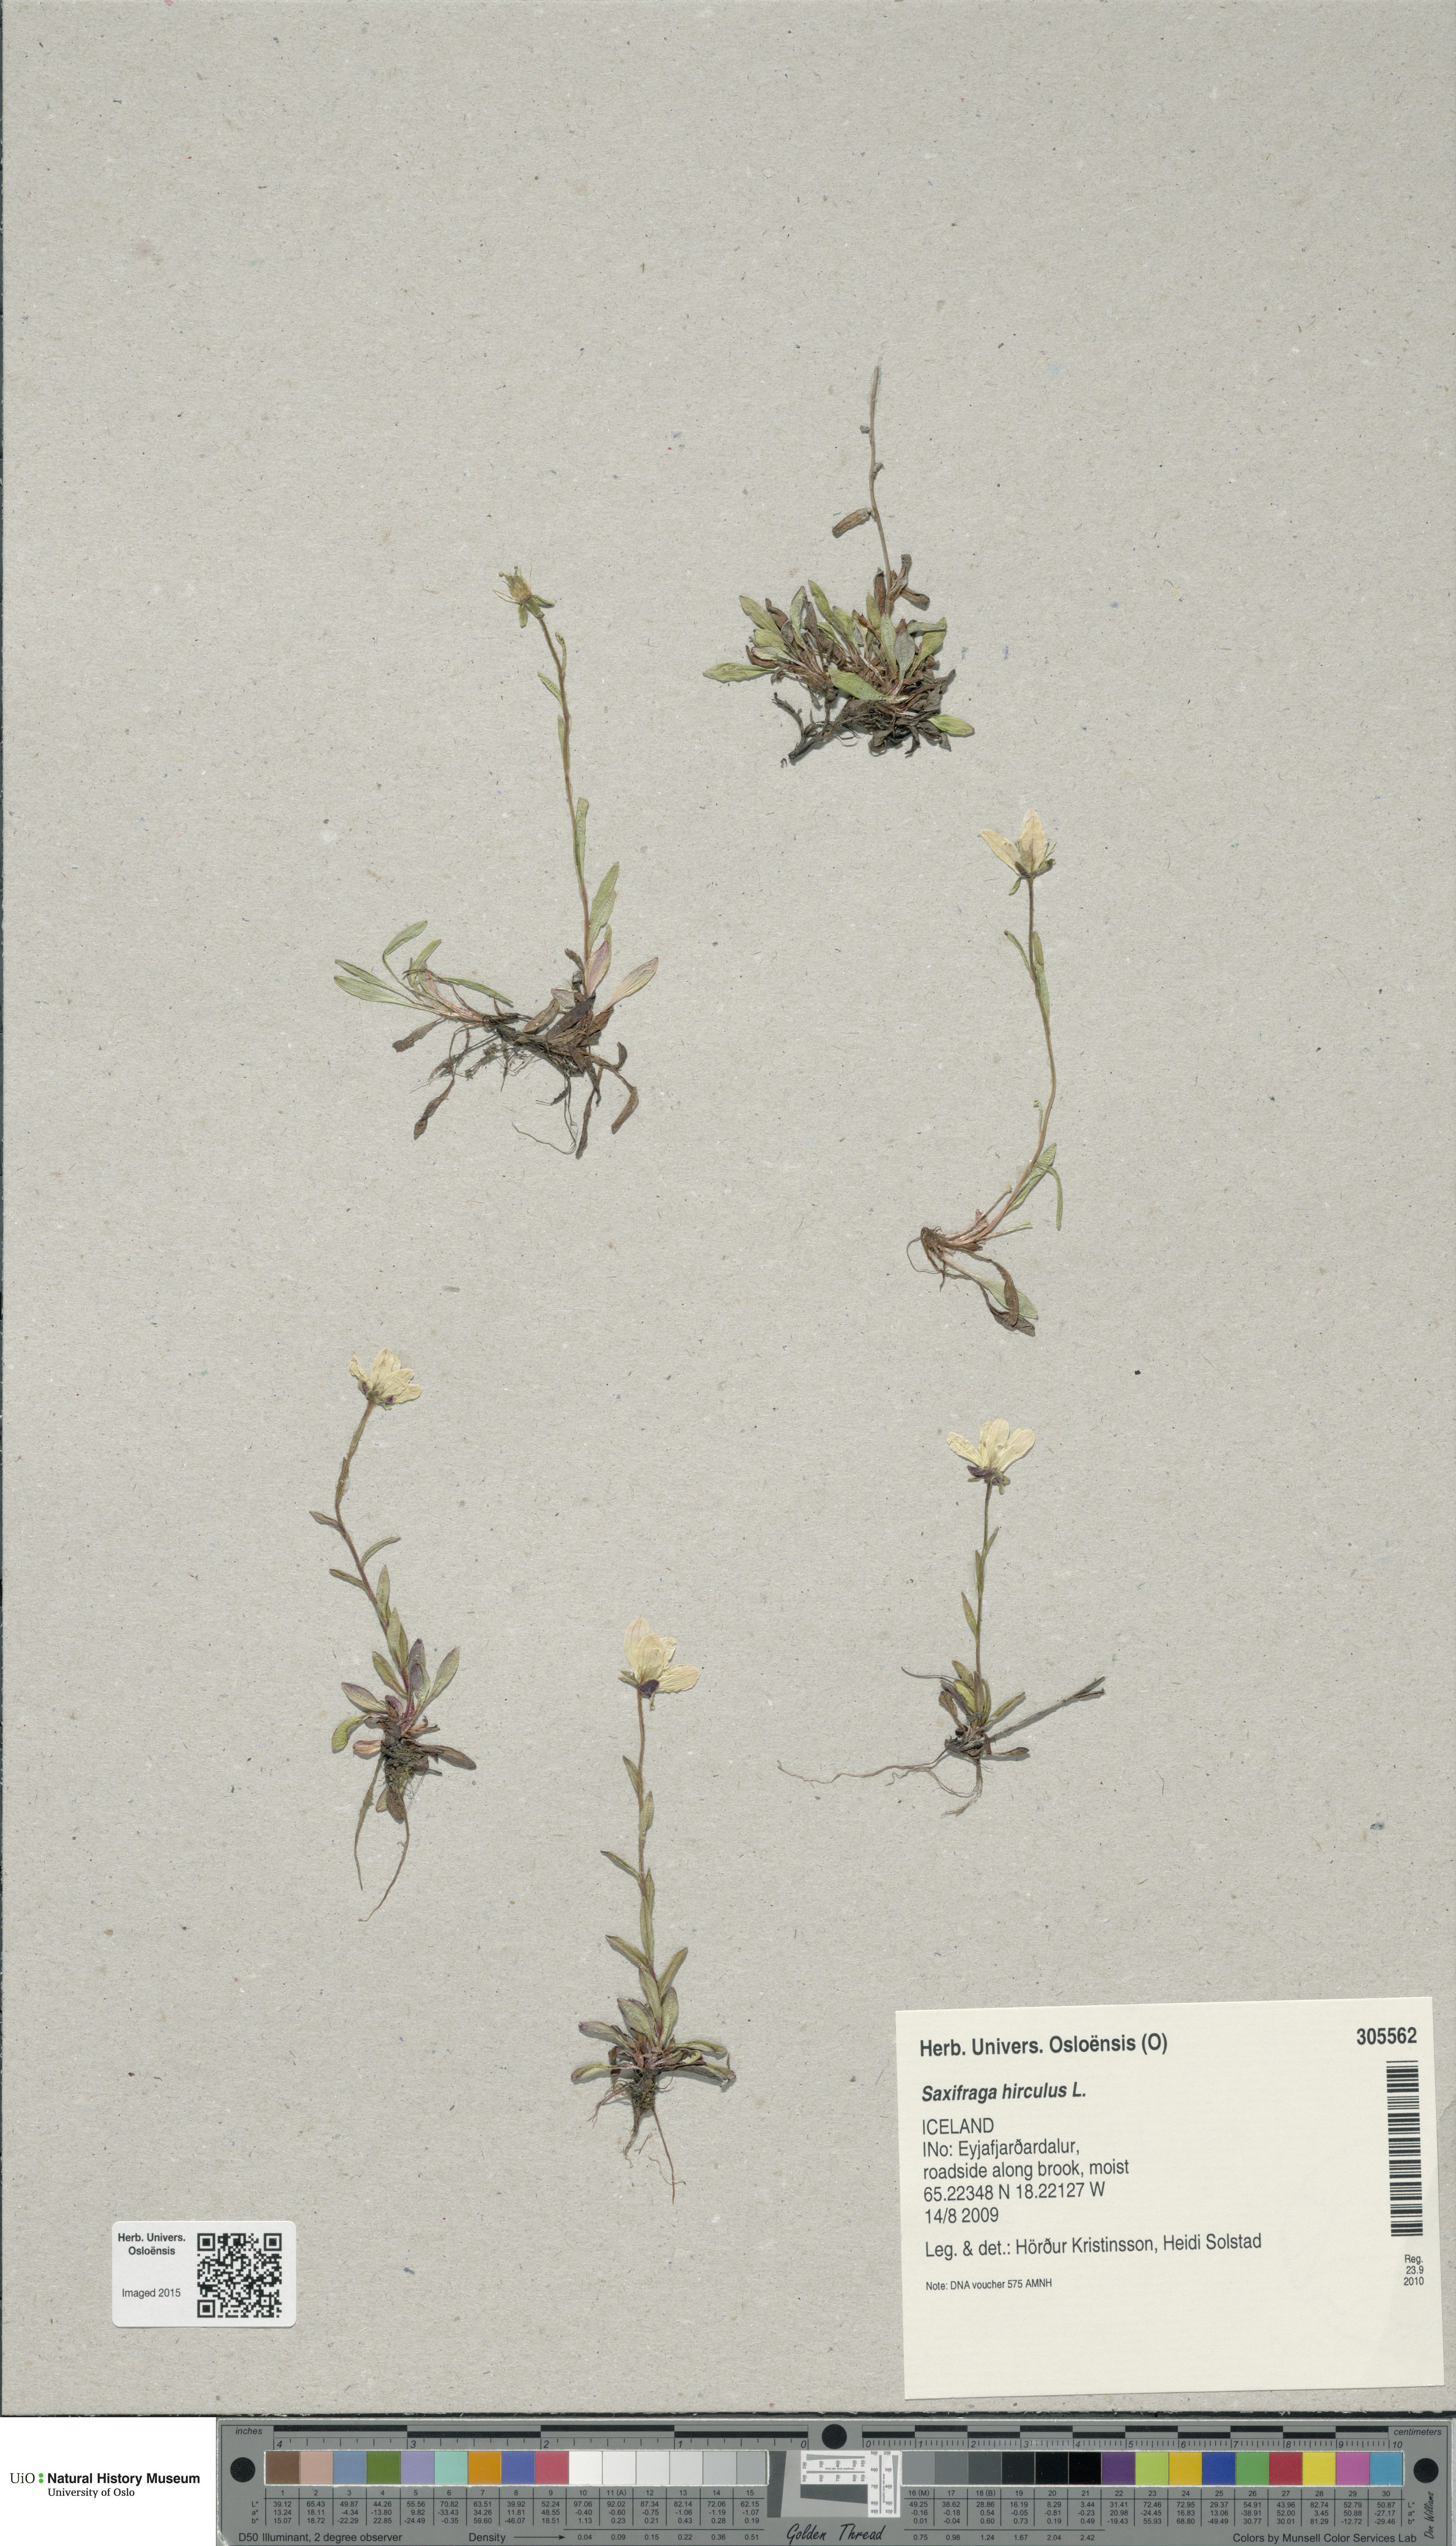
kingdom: Plantae
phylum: Tracheophyta
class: Magnoliopsida
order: Saxifragales
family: Saxifragaceae
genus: Saxifraga
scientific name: Saxifraga hirculus
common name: Yellow marsh saxifrage
